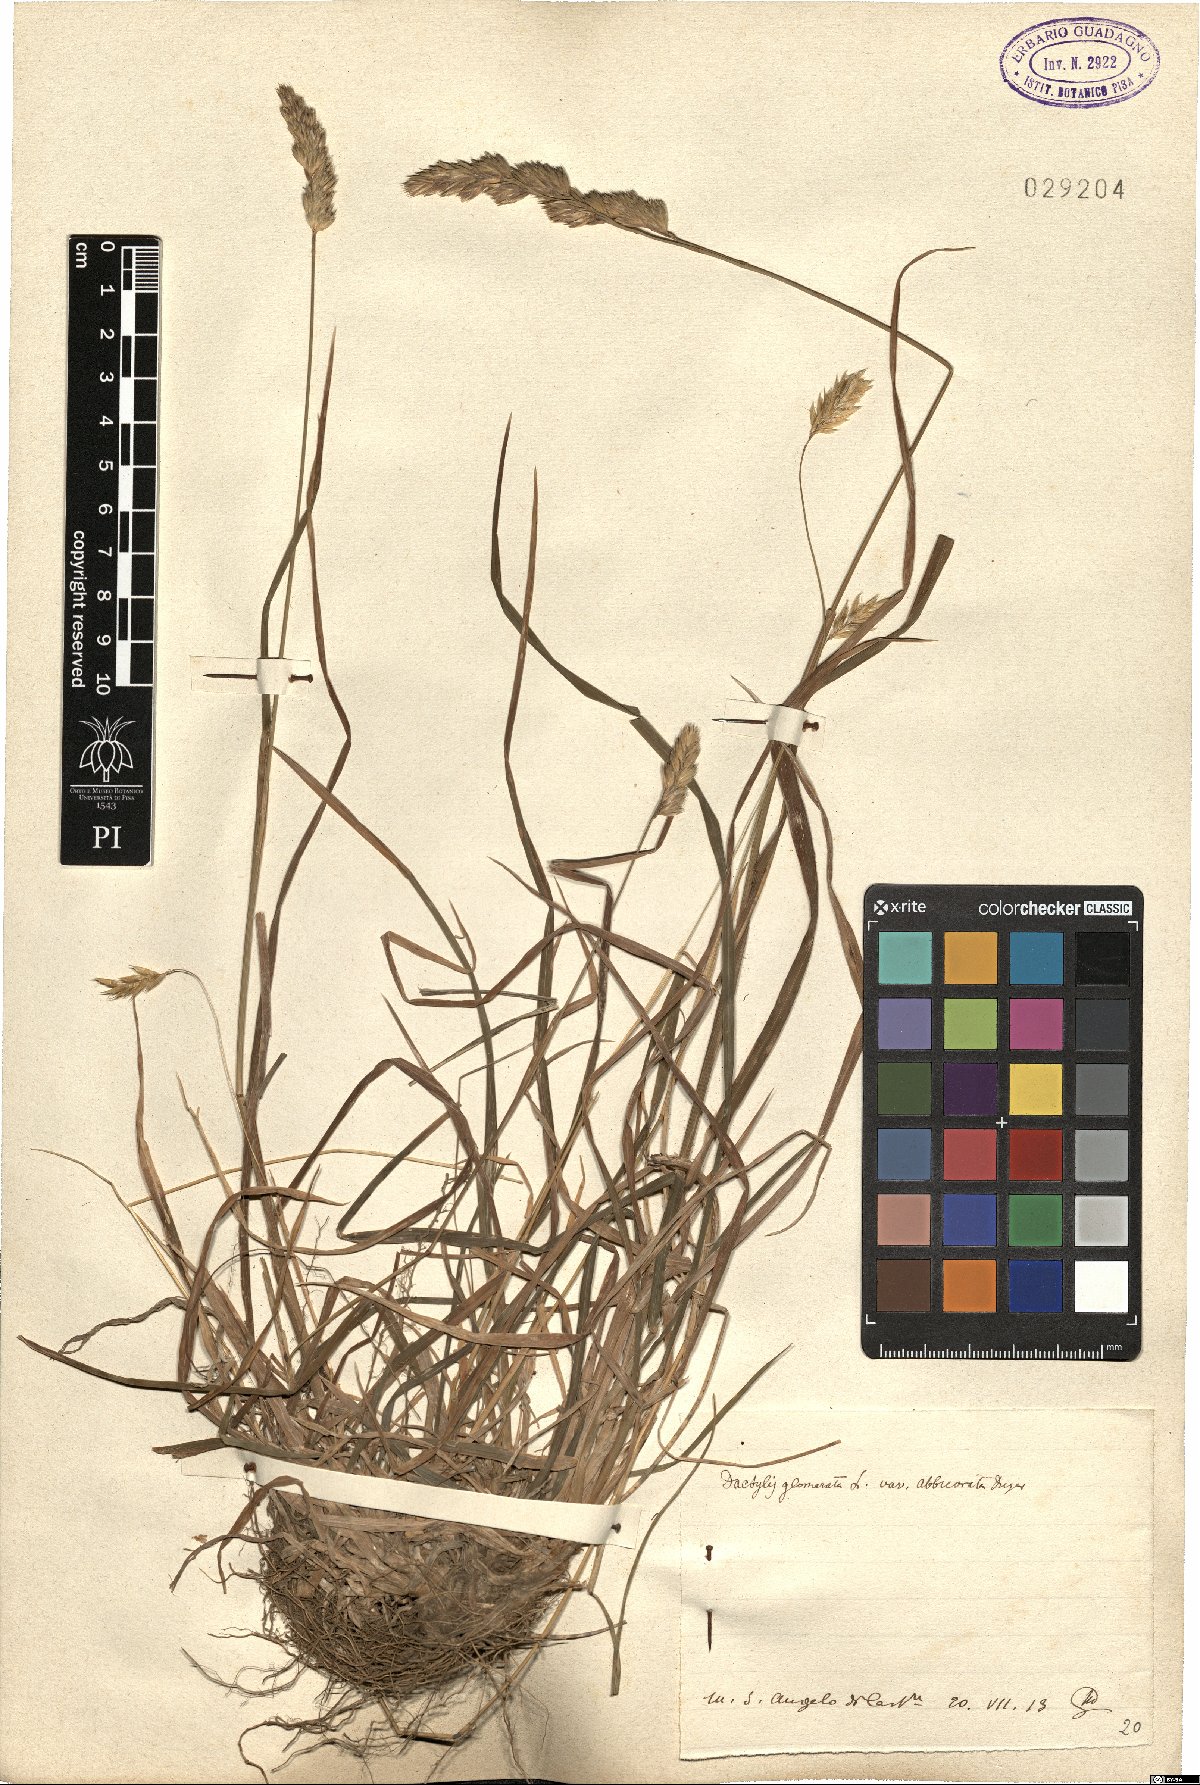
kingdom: Plantae
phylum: Tracheophyta
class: Liliopsida
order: Poales
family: Poaceae
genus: Dactylis
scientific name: Dactylis glomerata
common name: Orchardgrass
